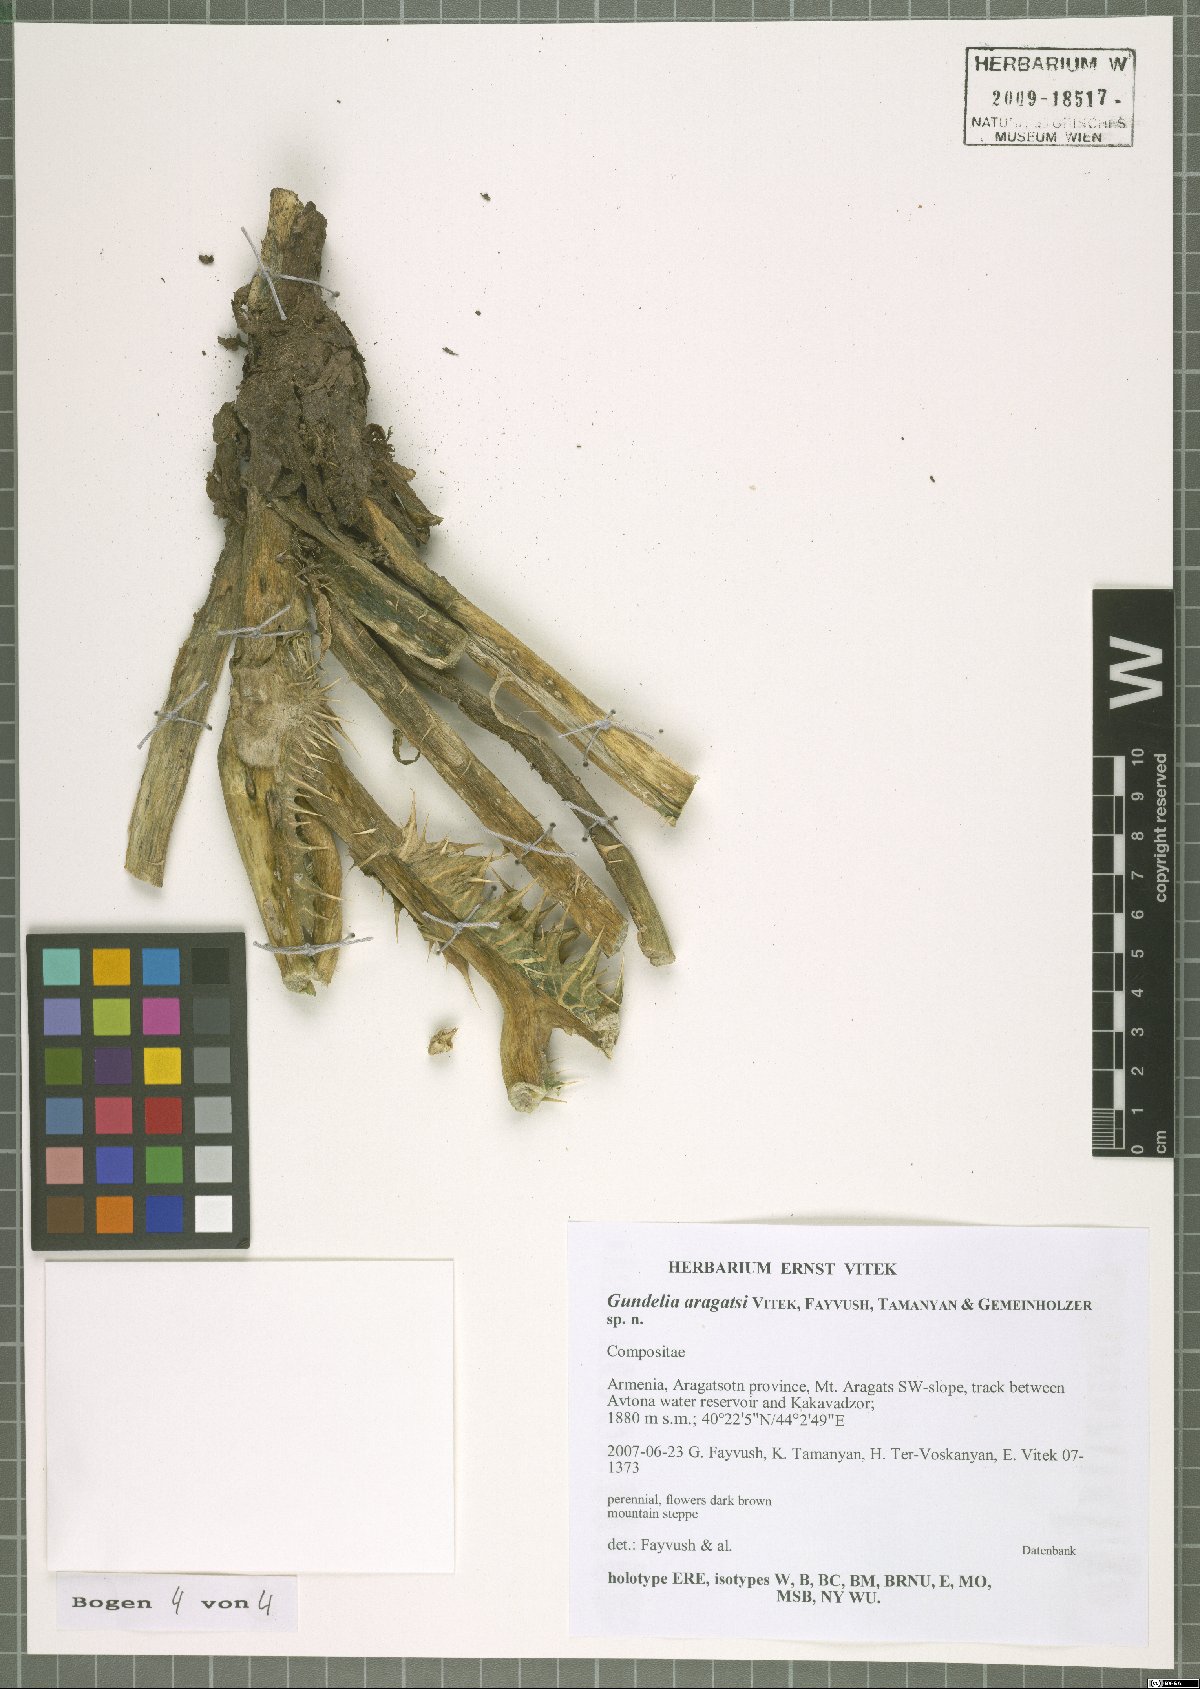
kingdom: Plantae
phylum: Tracheophyta
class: Magnoliopsida
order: Asterales
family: Asteraceae
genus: Gundelia
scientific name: Gundelia aragatsi
